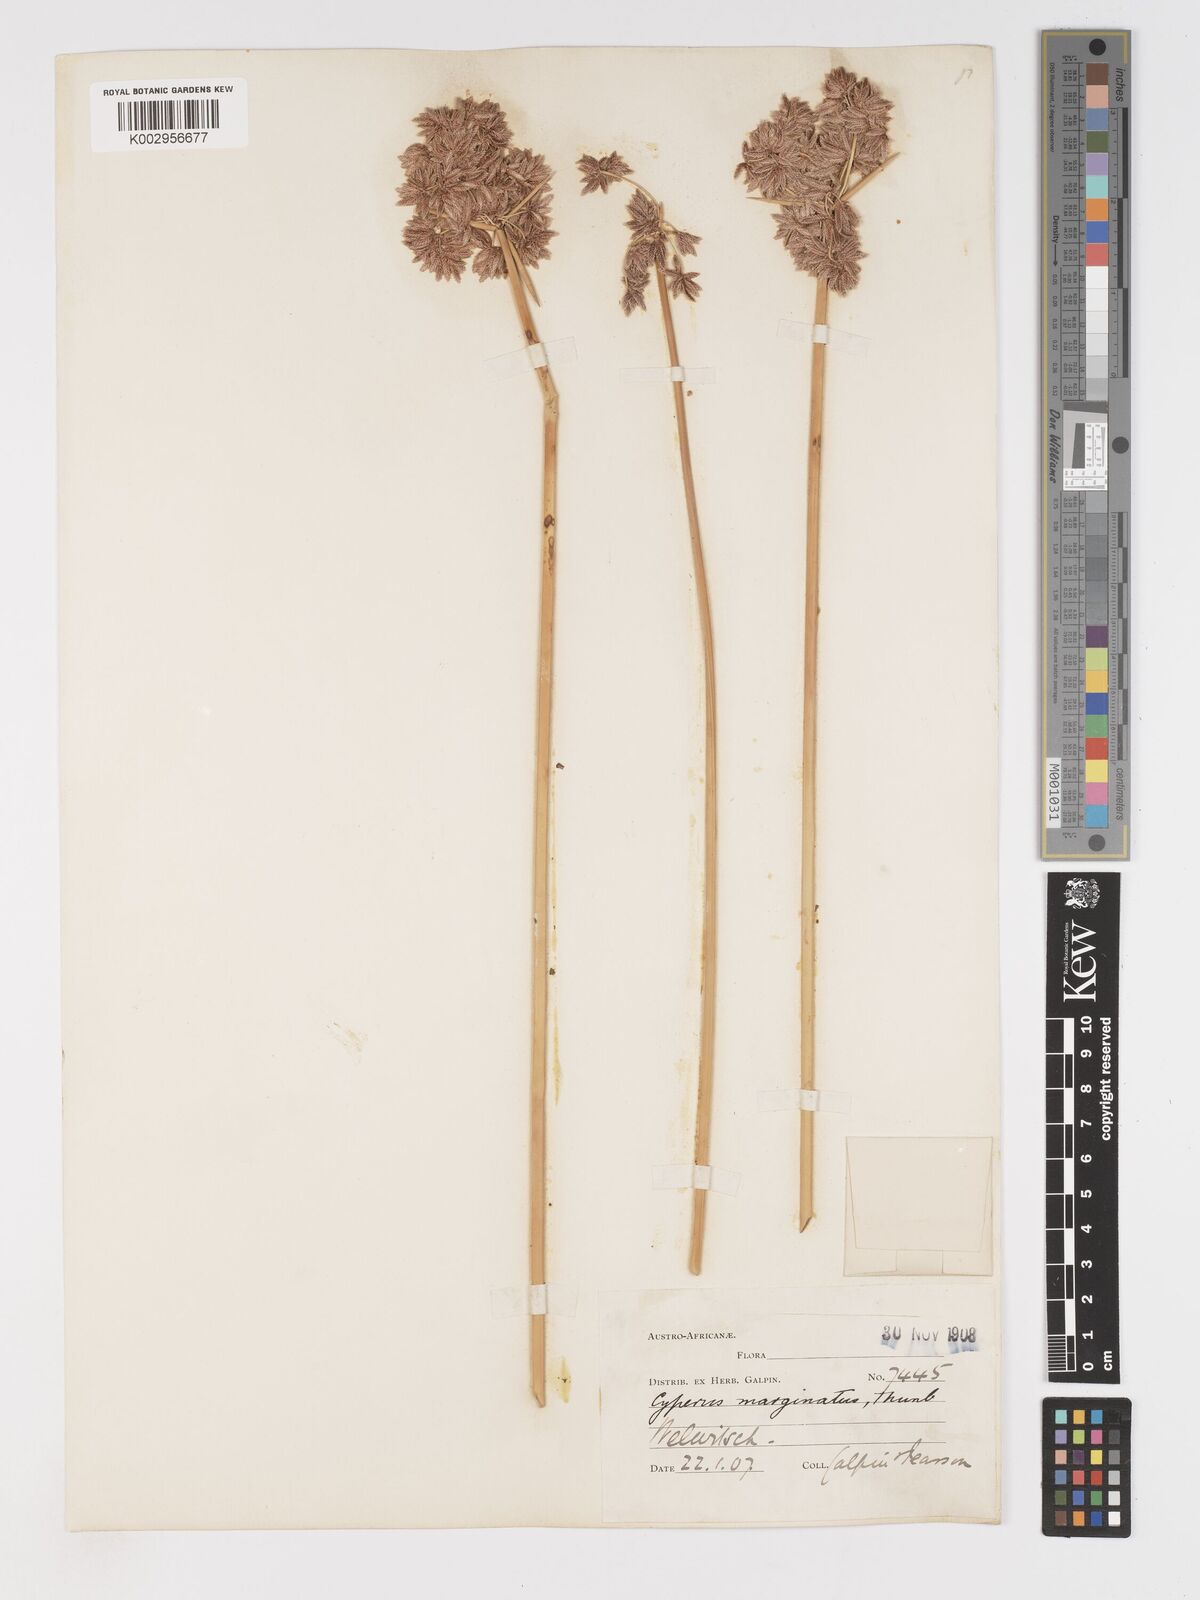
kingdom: Plantae
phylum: Tracheophyta
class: Liliopsida
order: Poales
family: Cyperaceae
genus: Cyperus
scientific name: Cyperus marginatus
